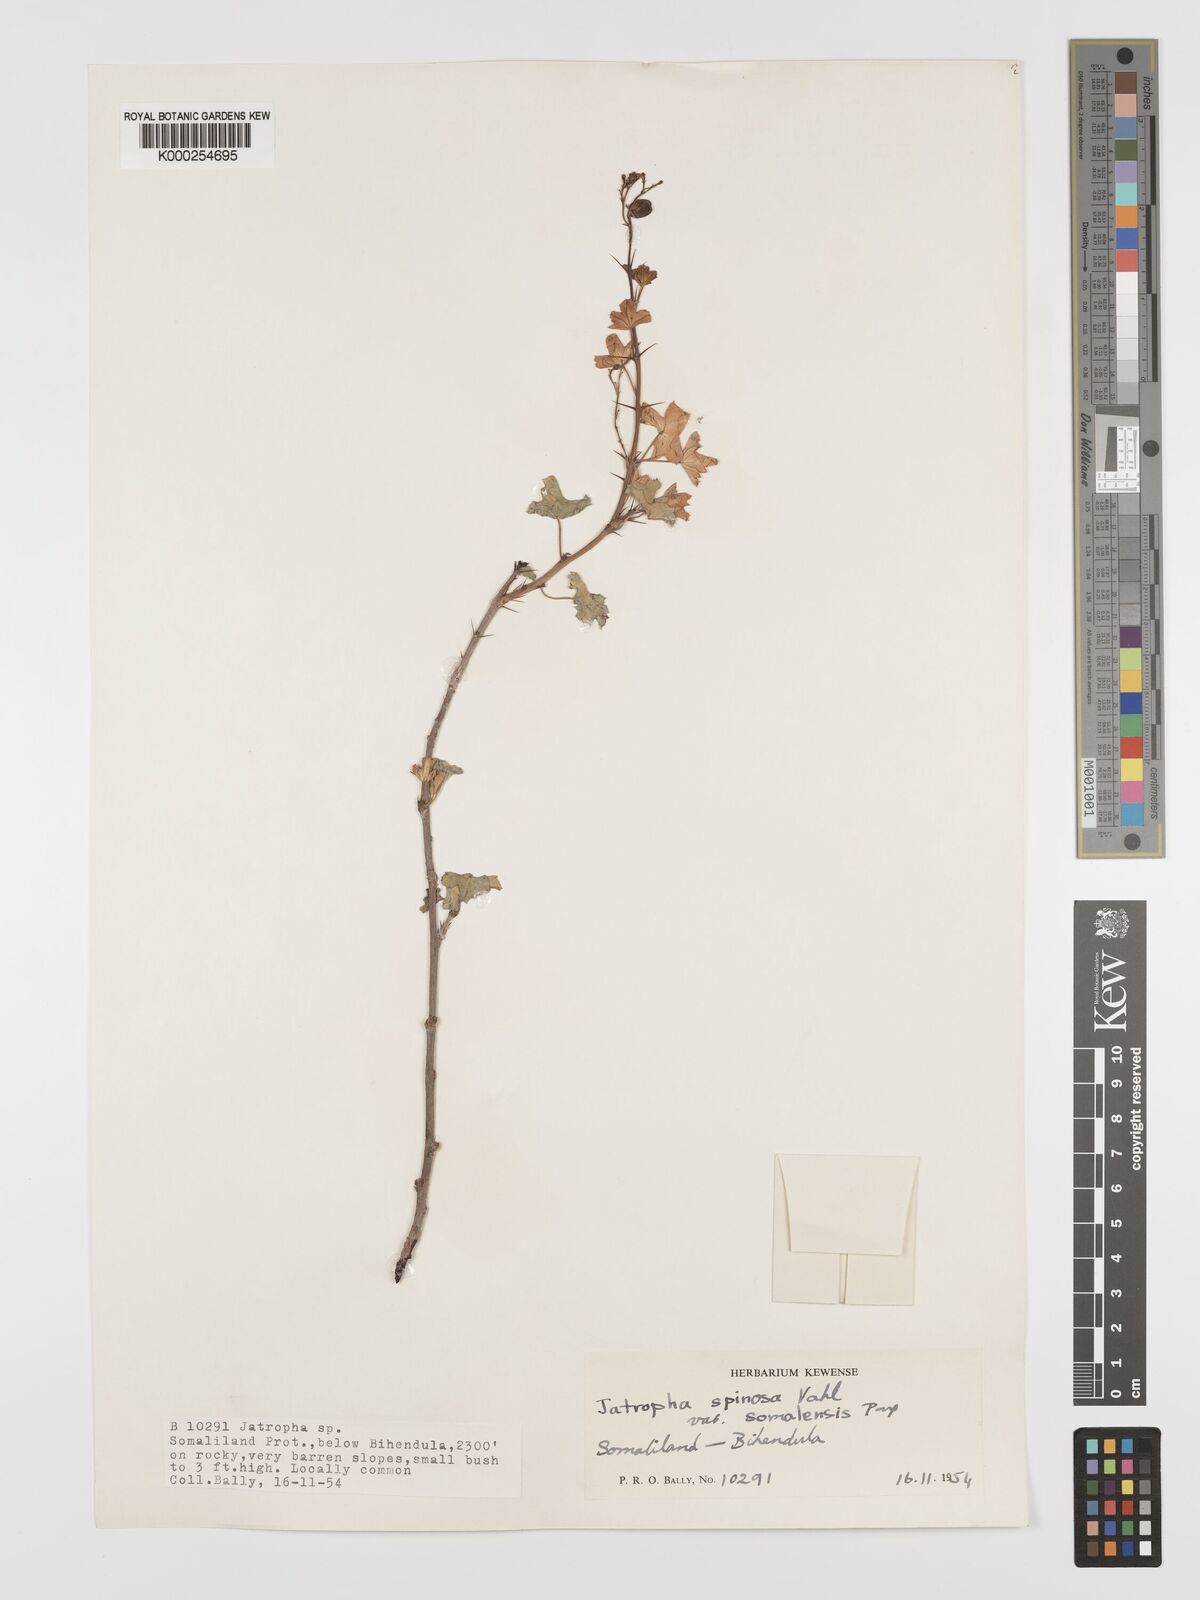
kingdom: Plantae
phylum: Tracheophyta
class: Magnoliopsida
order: Malpighiales
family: Euphorbiaceae
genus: Jatropha
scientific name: Jatropha spinosa
